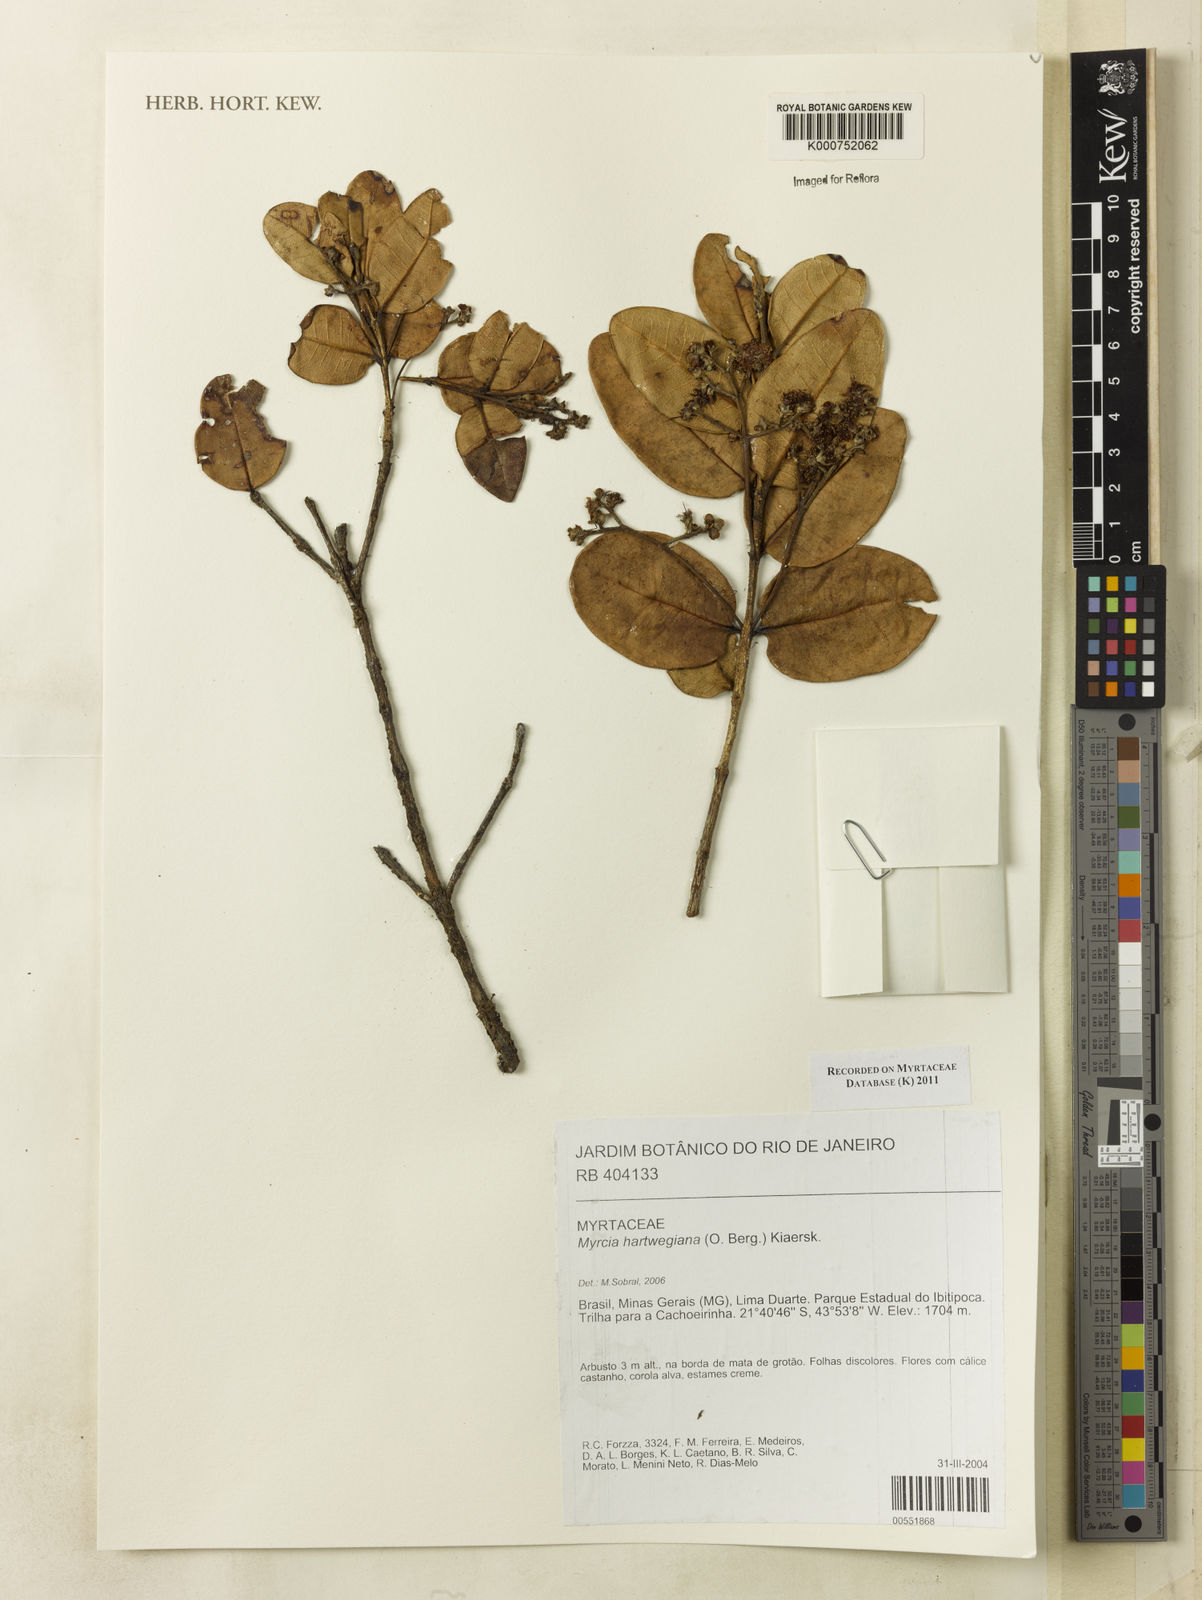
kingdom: Plantae
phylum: Tracheophyta
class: Magnoliopsida
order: Myrtales
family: Myrtaceae
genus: Myrcia
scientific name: Myrcia hartwegiana
